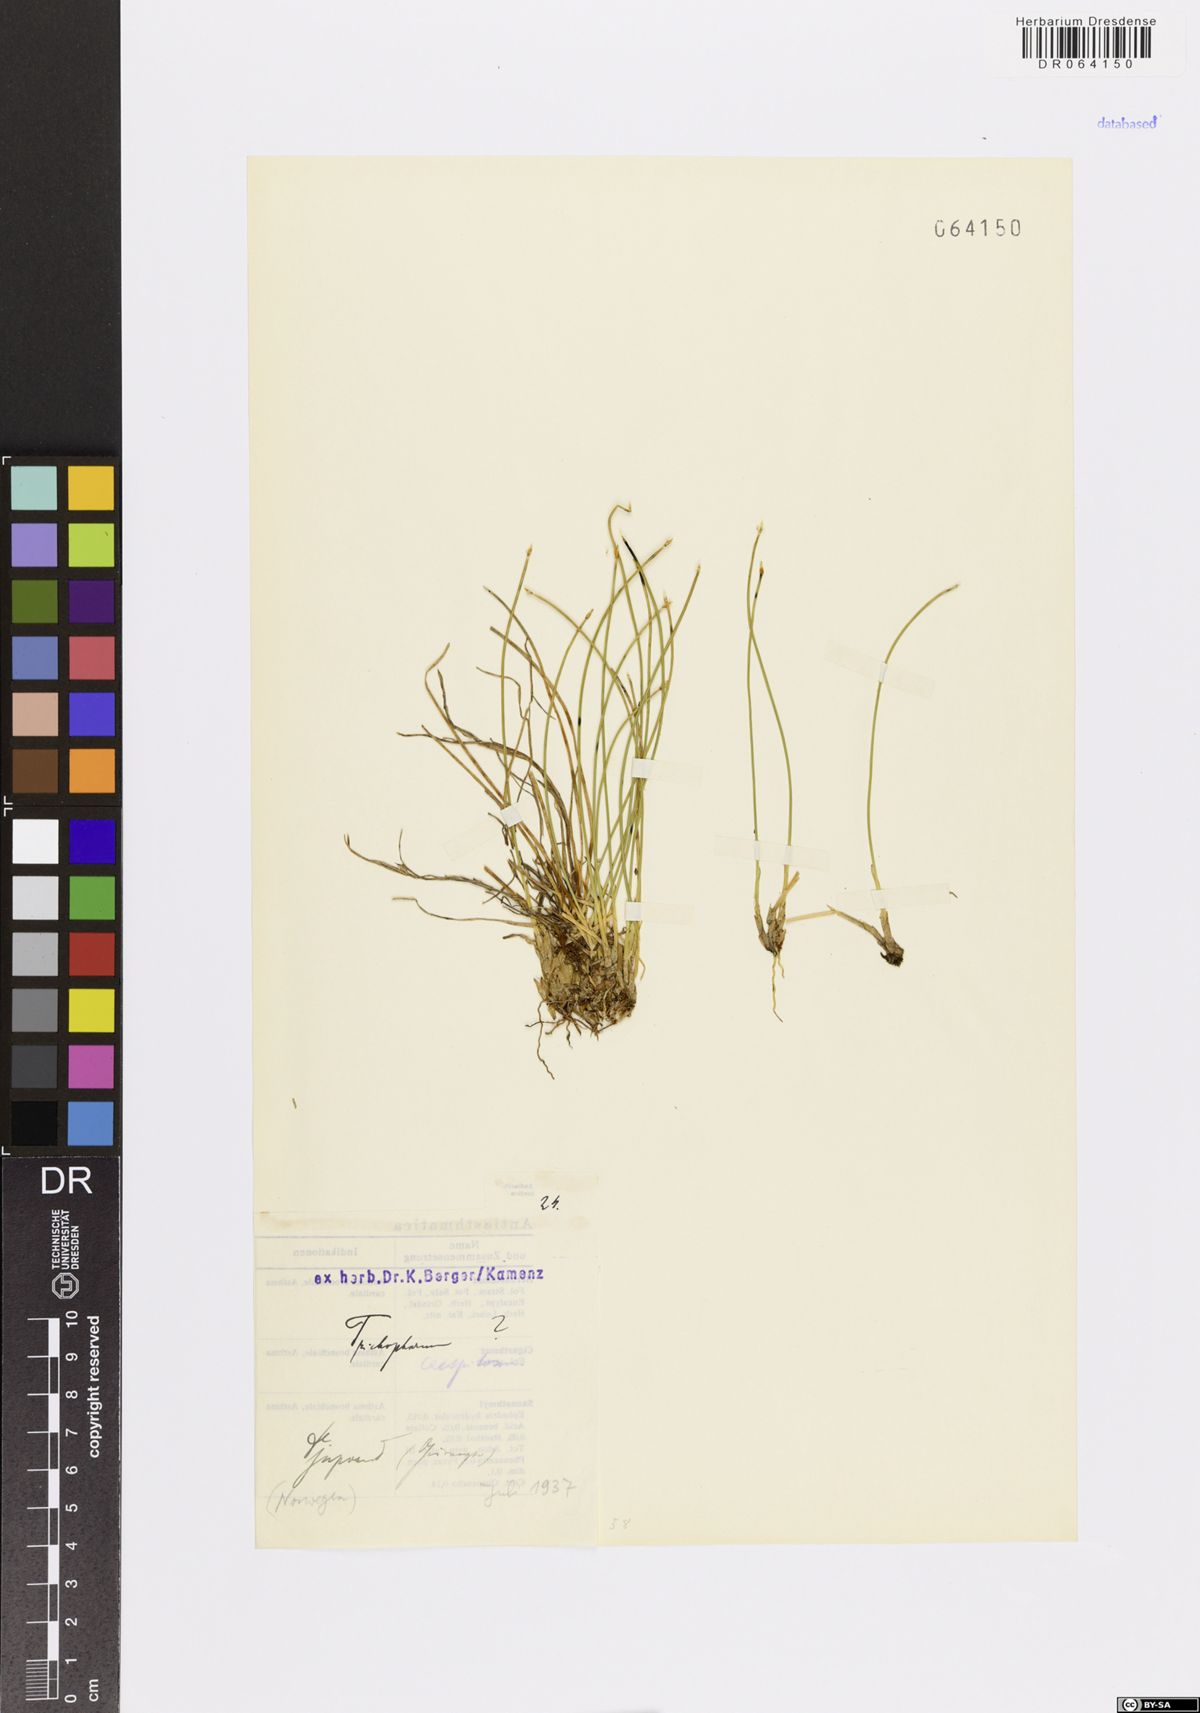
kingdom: Plantae
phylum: Tracheophyta
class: Liliopsida
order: Poales
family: Cyperaceae
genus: Trichophorum
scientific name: Trichophorum
